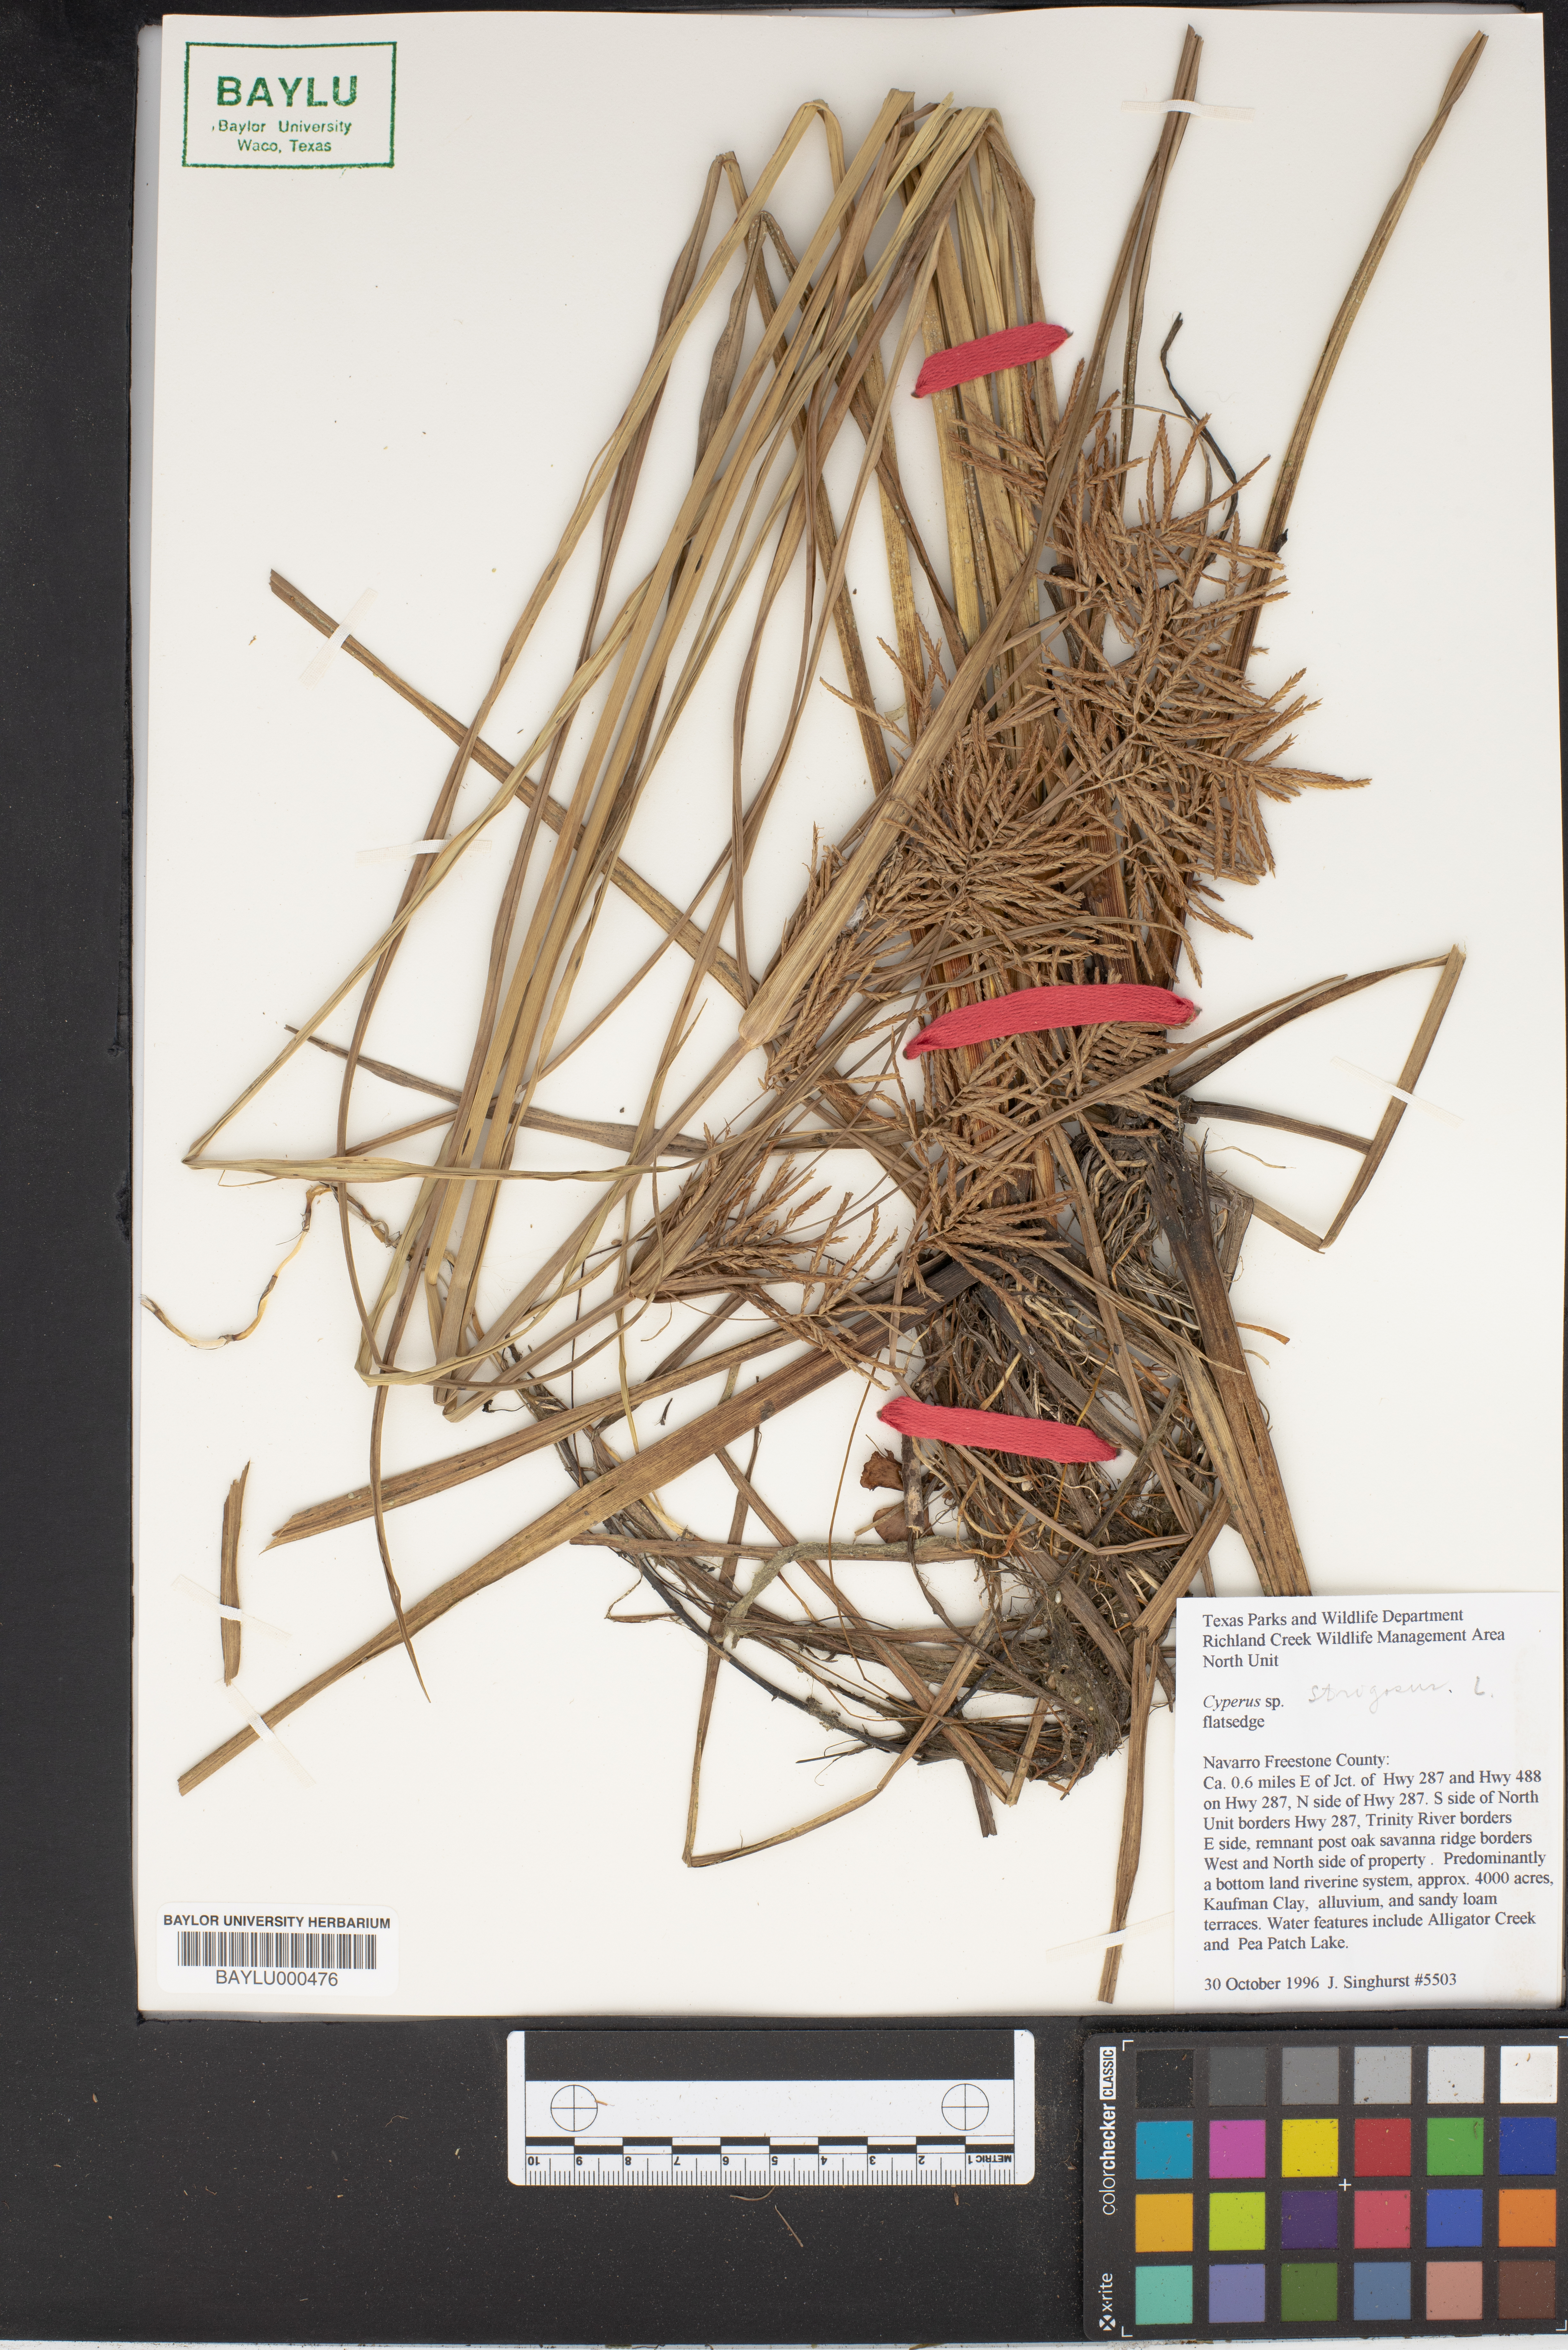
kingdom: Plantae
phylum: Tracheophyta
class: Liliopsida
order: Poales
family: Cyperaceae
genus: Cyperus
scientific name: Cyperus strigosus
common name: False nutsedge
